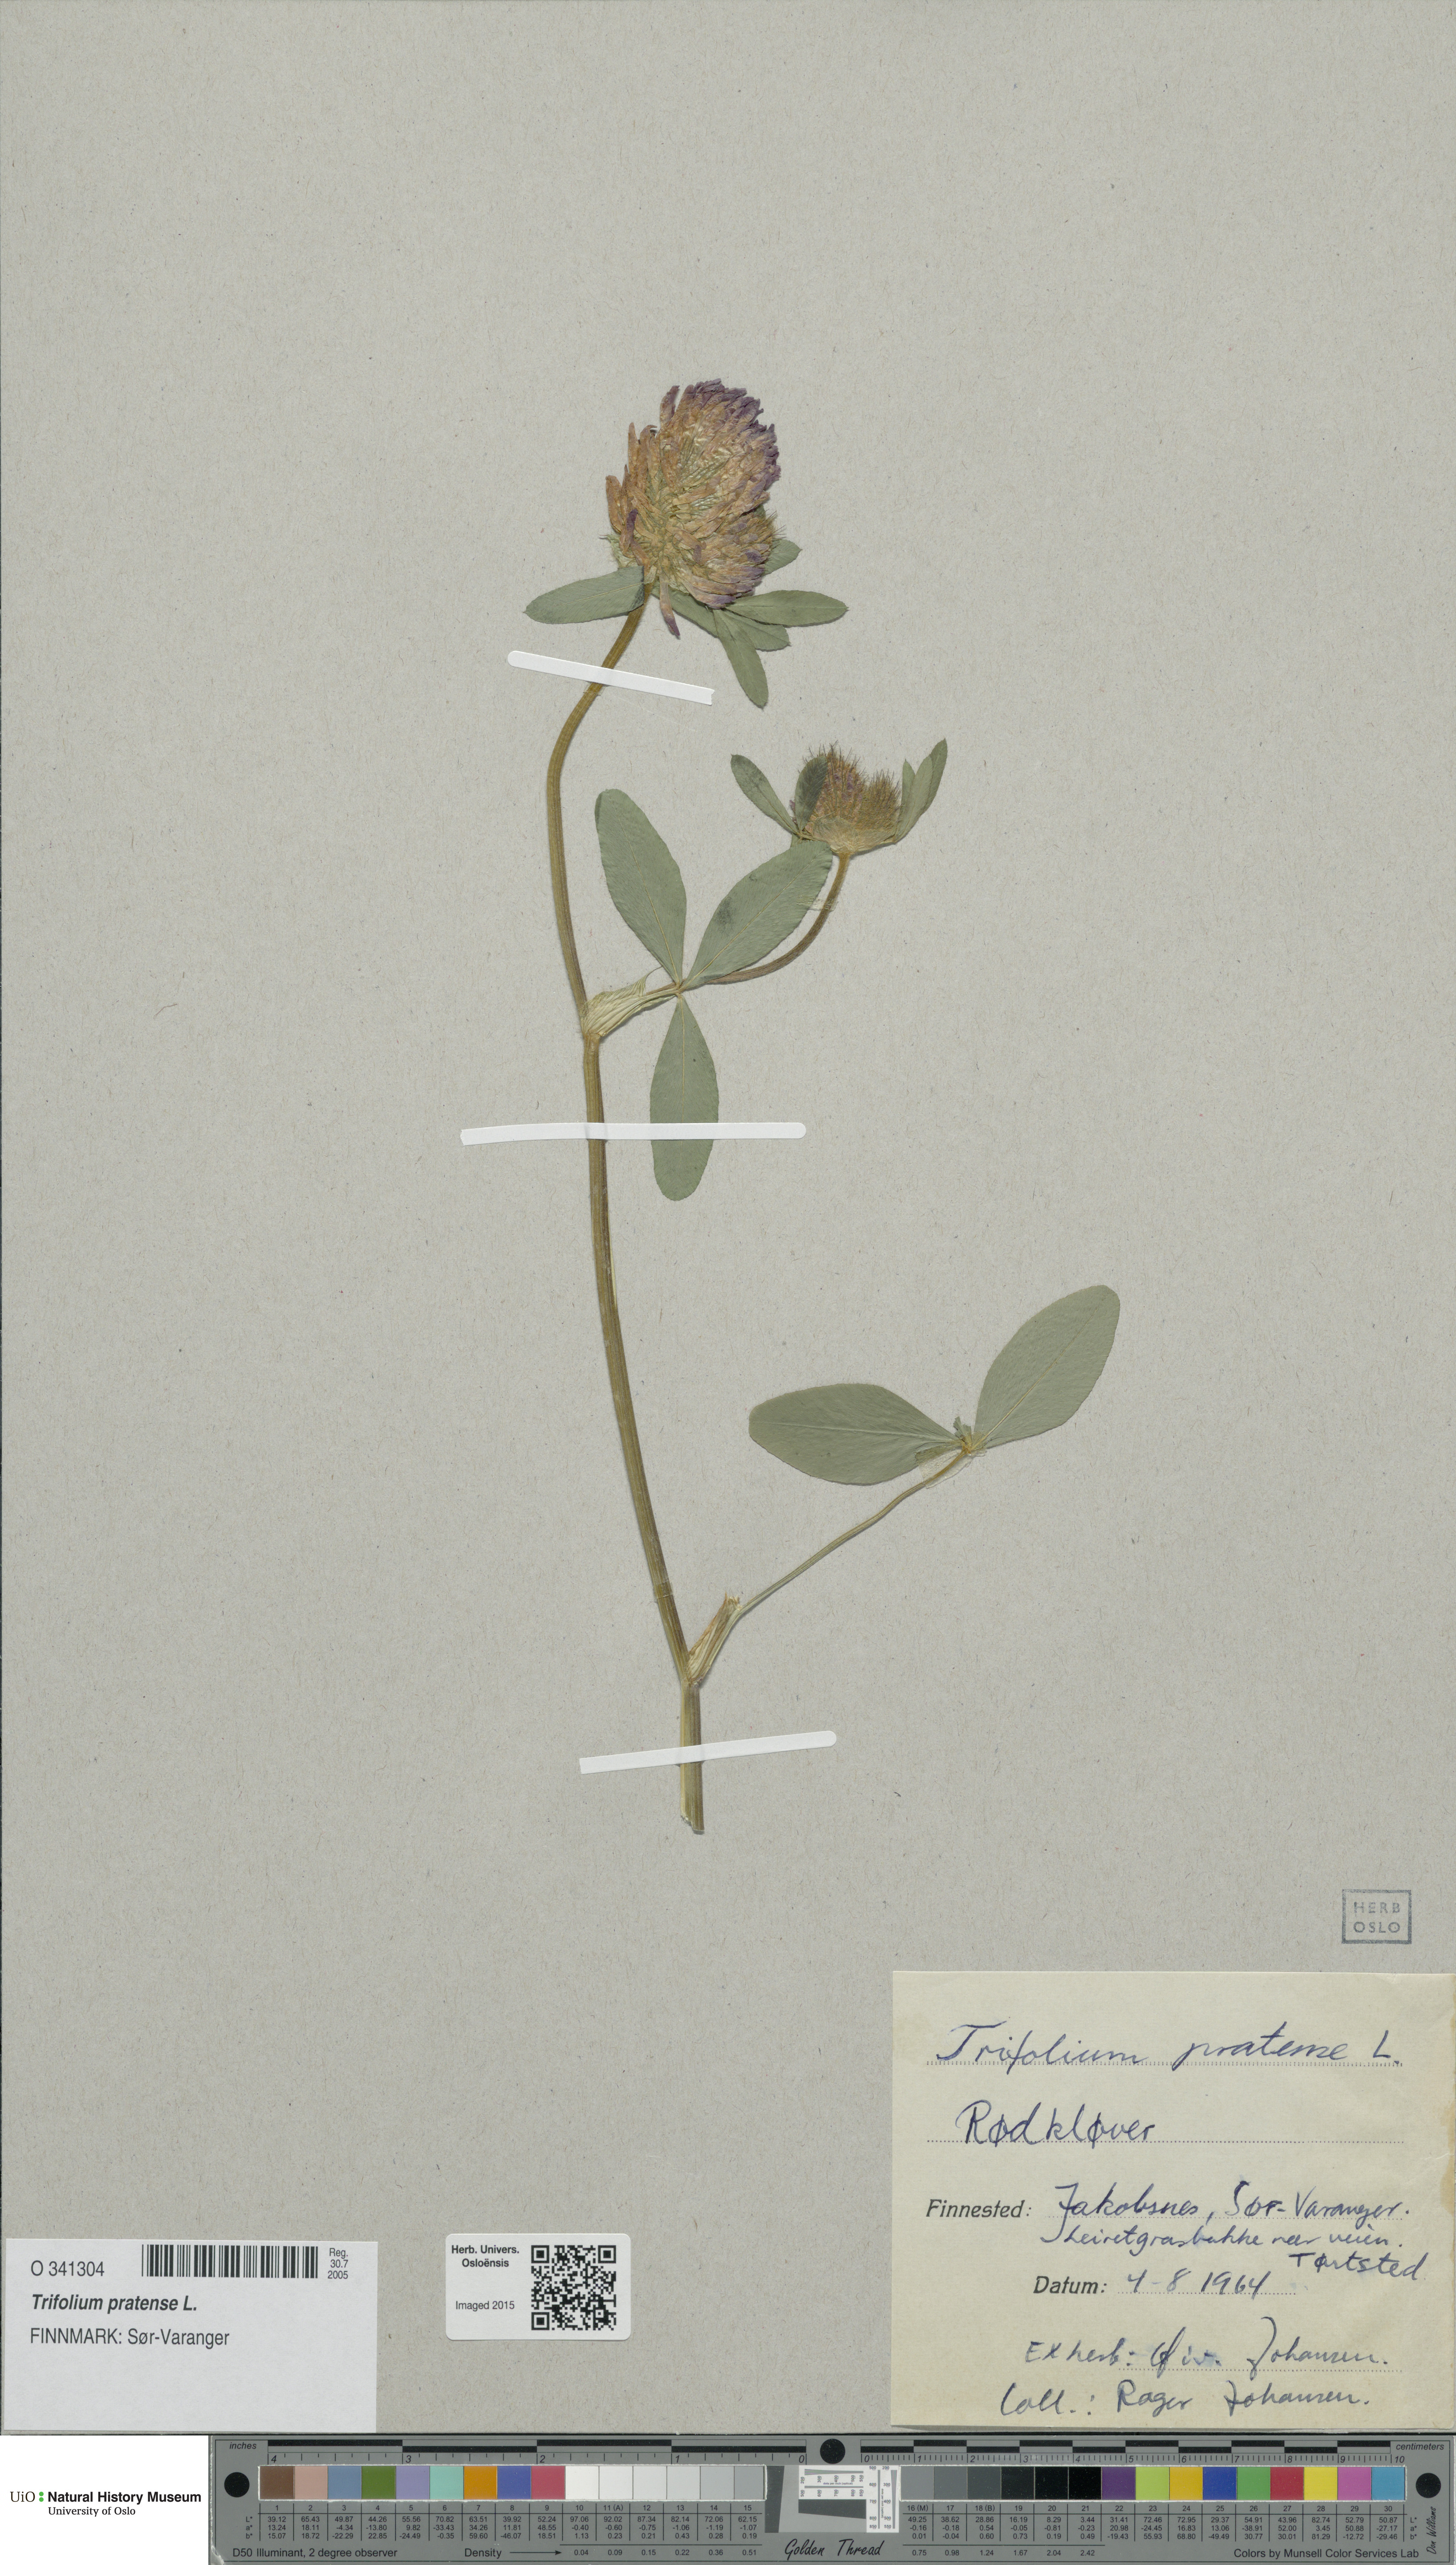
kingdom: Plantae
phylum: Tracheophyta
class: Magnoliopsida
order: Fabales
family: Fabaceae
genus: Trifolium
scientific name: Trifolium pratense
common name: Red clover
